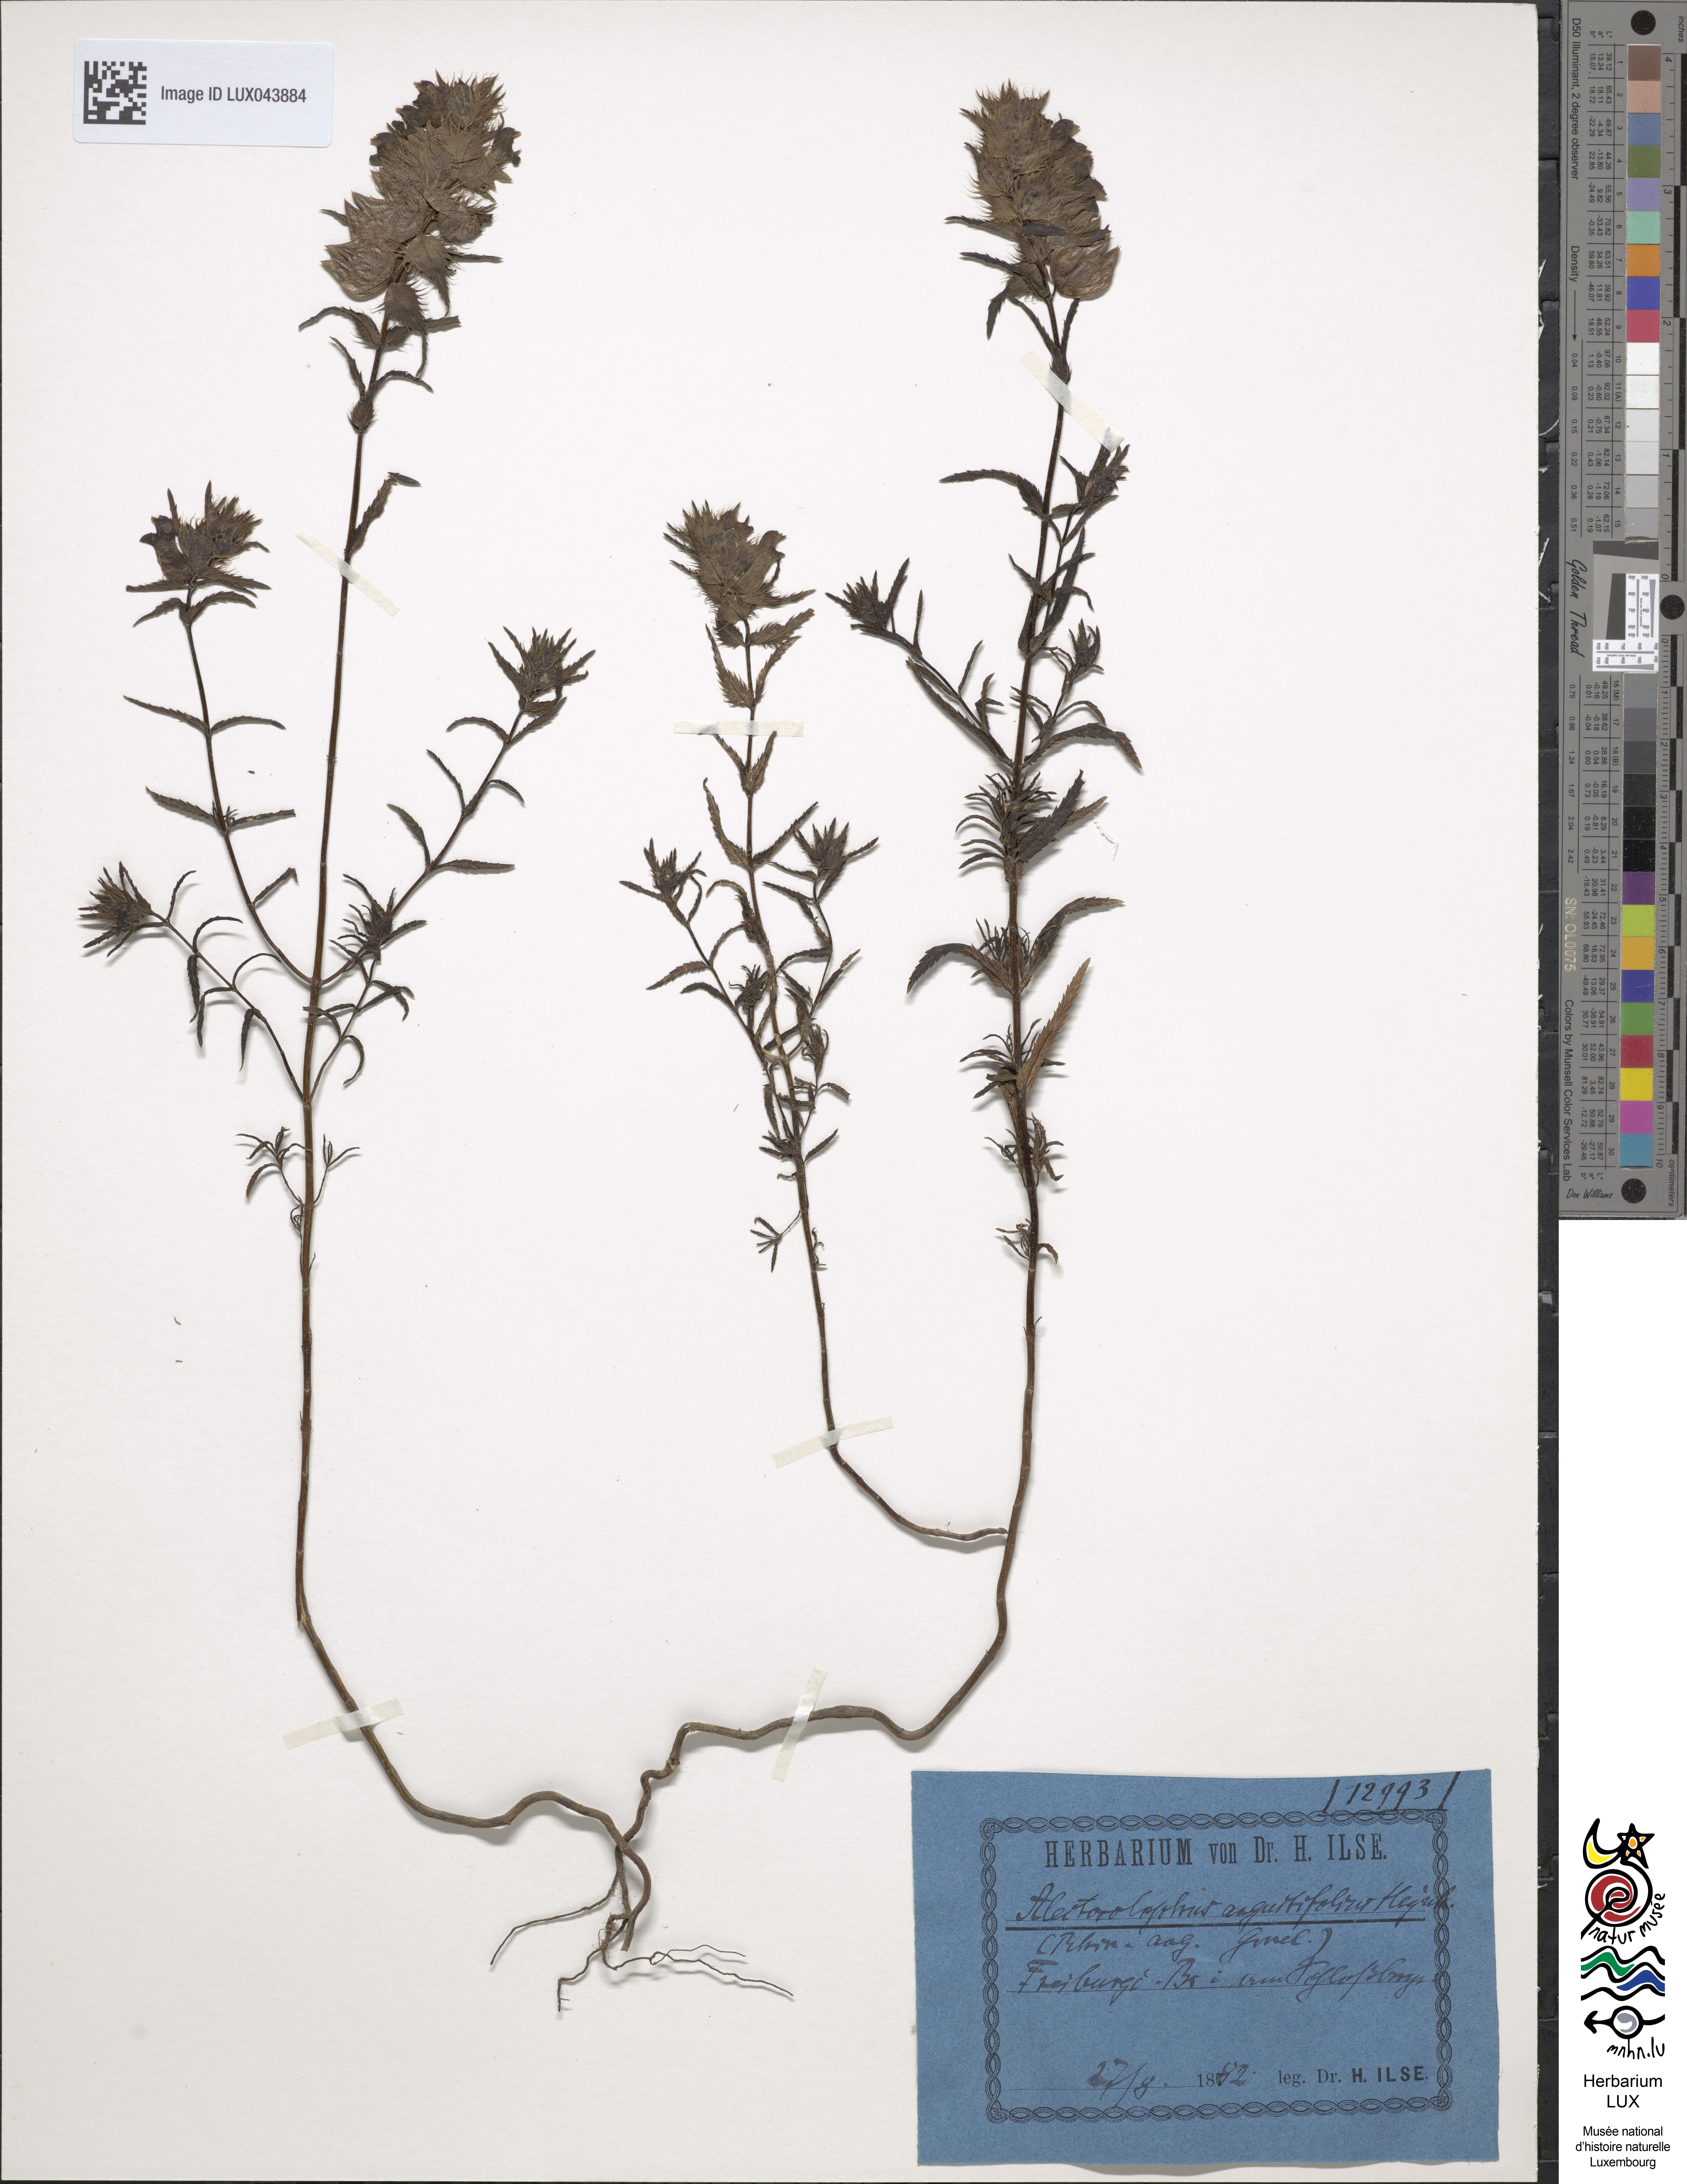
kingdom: Plantae
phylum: Tracheophyta
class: Magnoliopsida
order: Lamiales
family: Orobanchaceae
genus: Rhinanthus
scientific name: Rhinanthus
